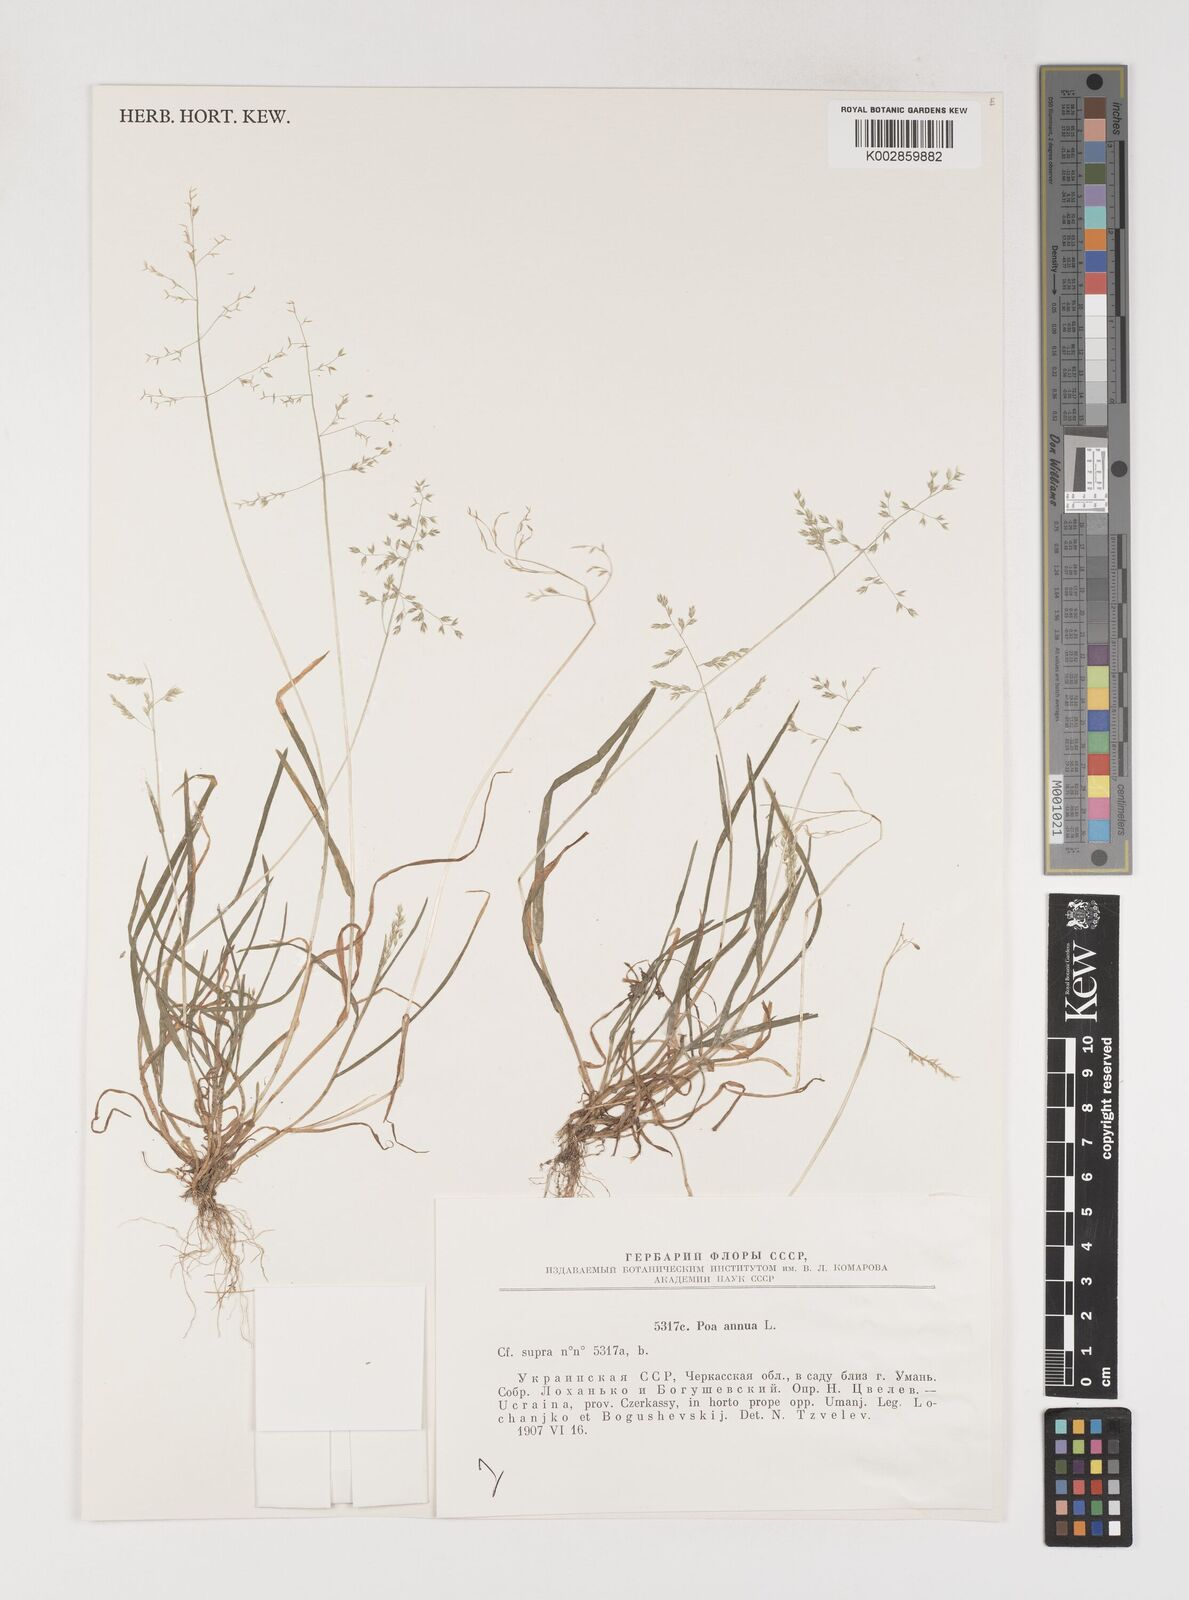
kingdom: Plantae
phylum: Tracheophyta
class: Liliopsida
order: Poales
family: Poaceae
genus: Poa
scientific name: Poa annua
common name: Annual bluegrass
